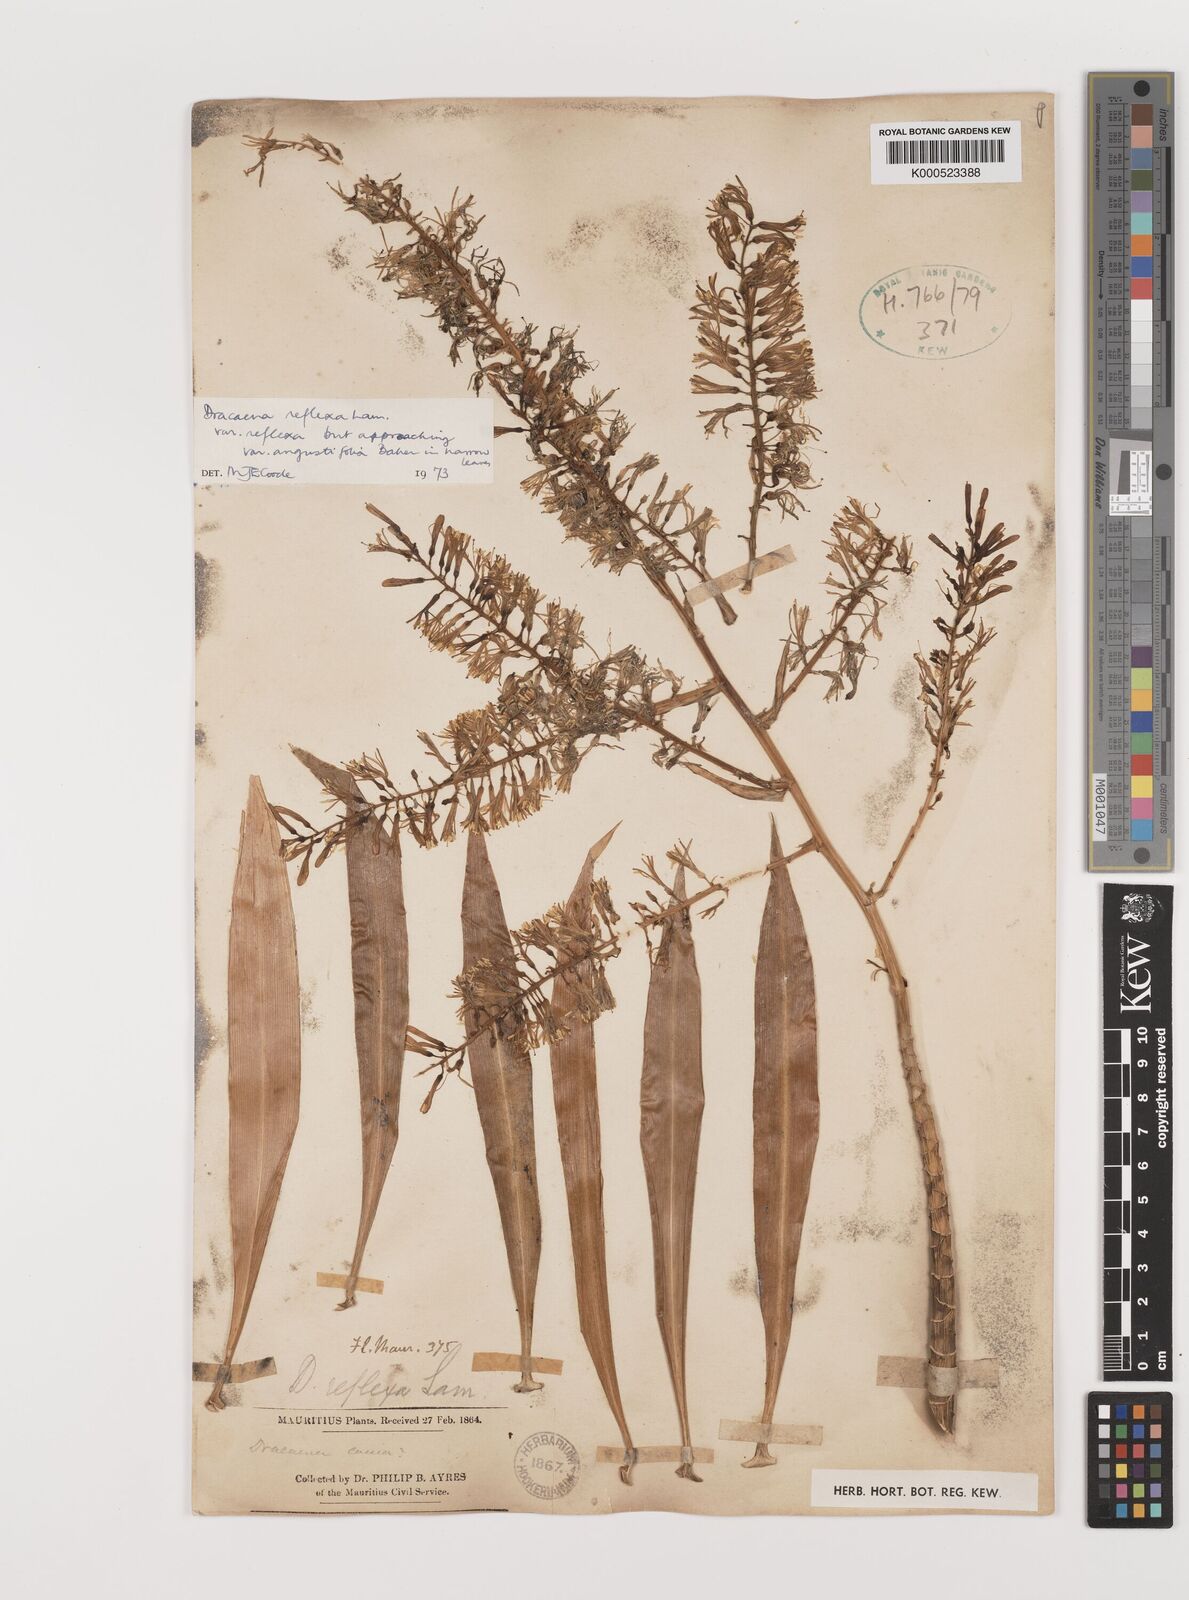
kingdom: Plantae
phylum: Tracheophyta
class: Liliopsida
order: Asparagales
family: Asparagaceae
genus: Dracaena
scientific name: Dracaena reflexa
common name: Song-of-india
